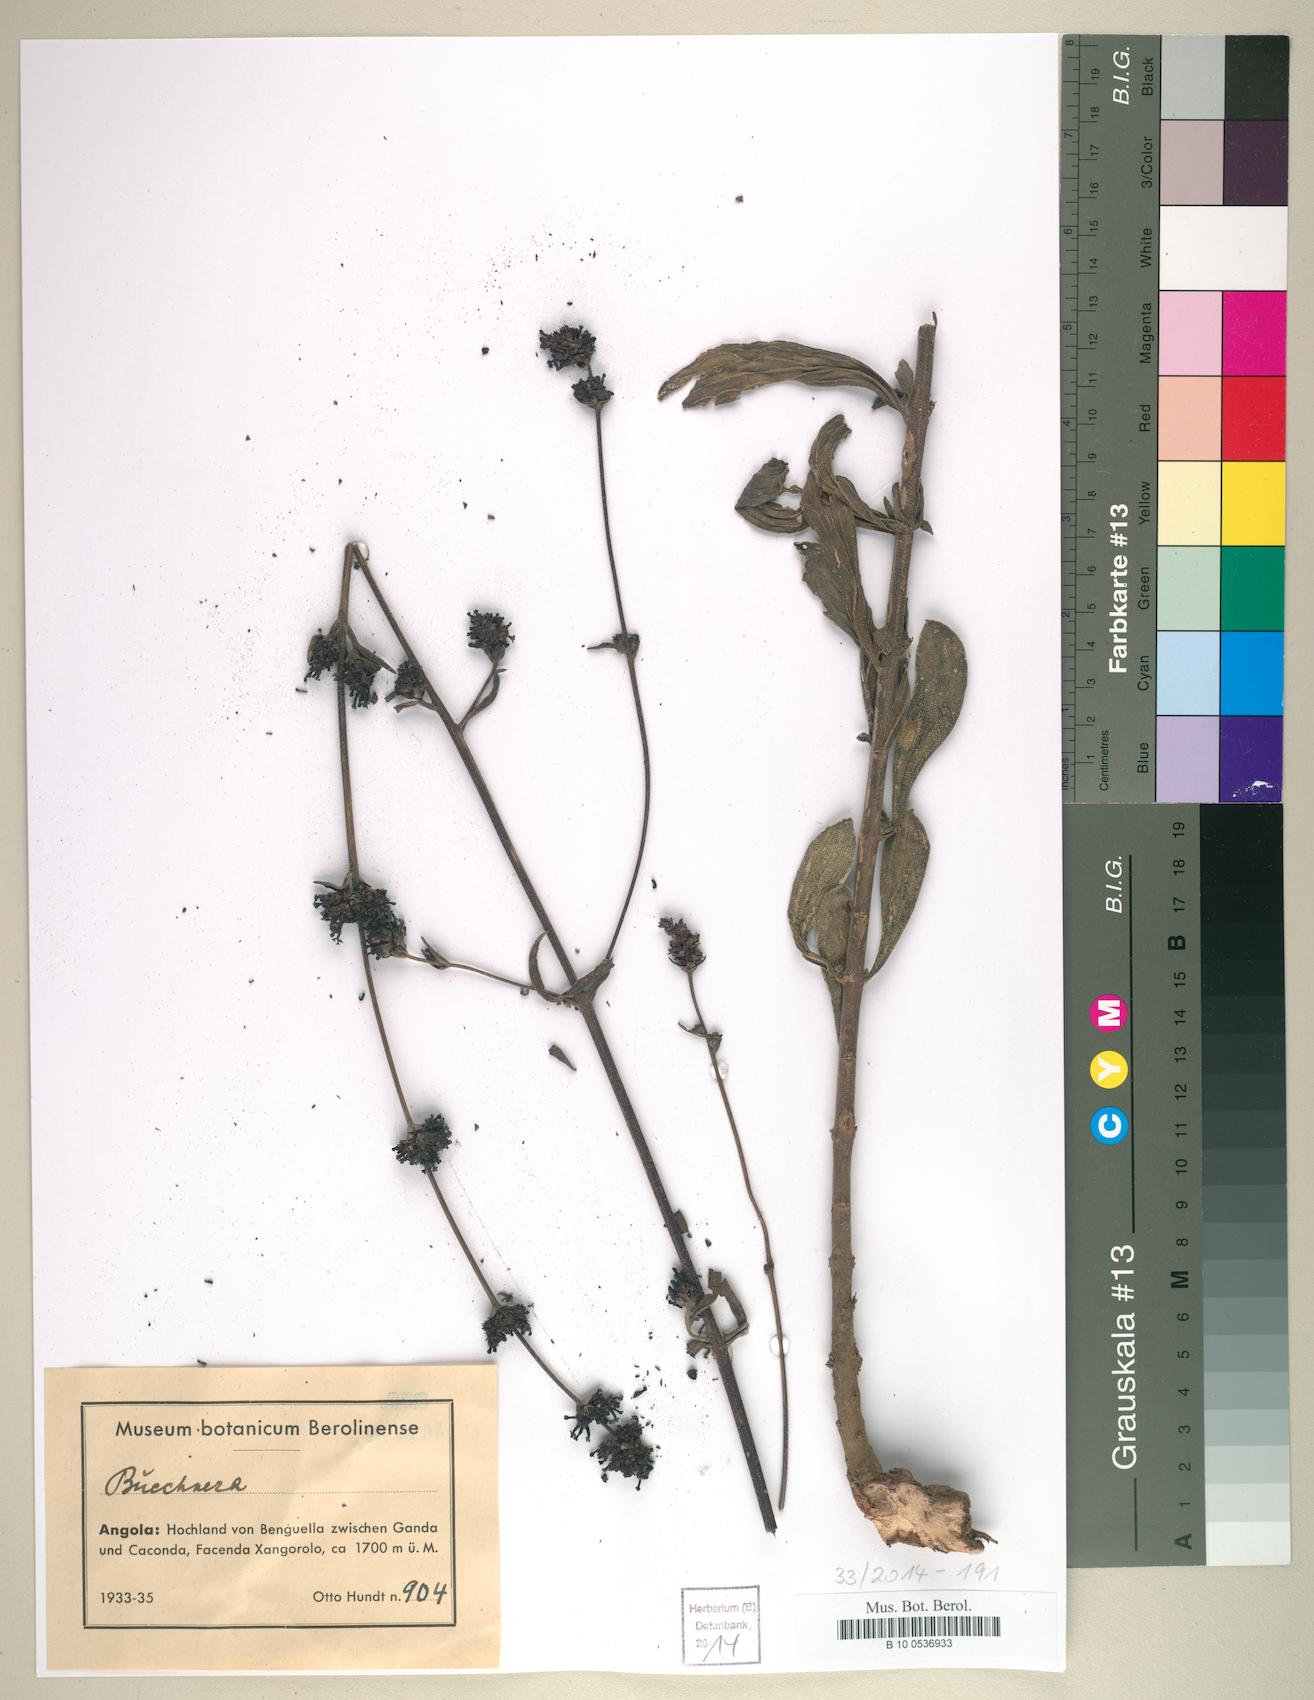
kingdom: Plantae
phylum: Tracheophyta
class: Magnoliopsida
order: Lamiales
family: Scrophulariaceae
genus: Bucknera
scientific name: Bucknera
